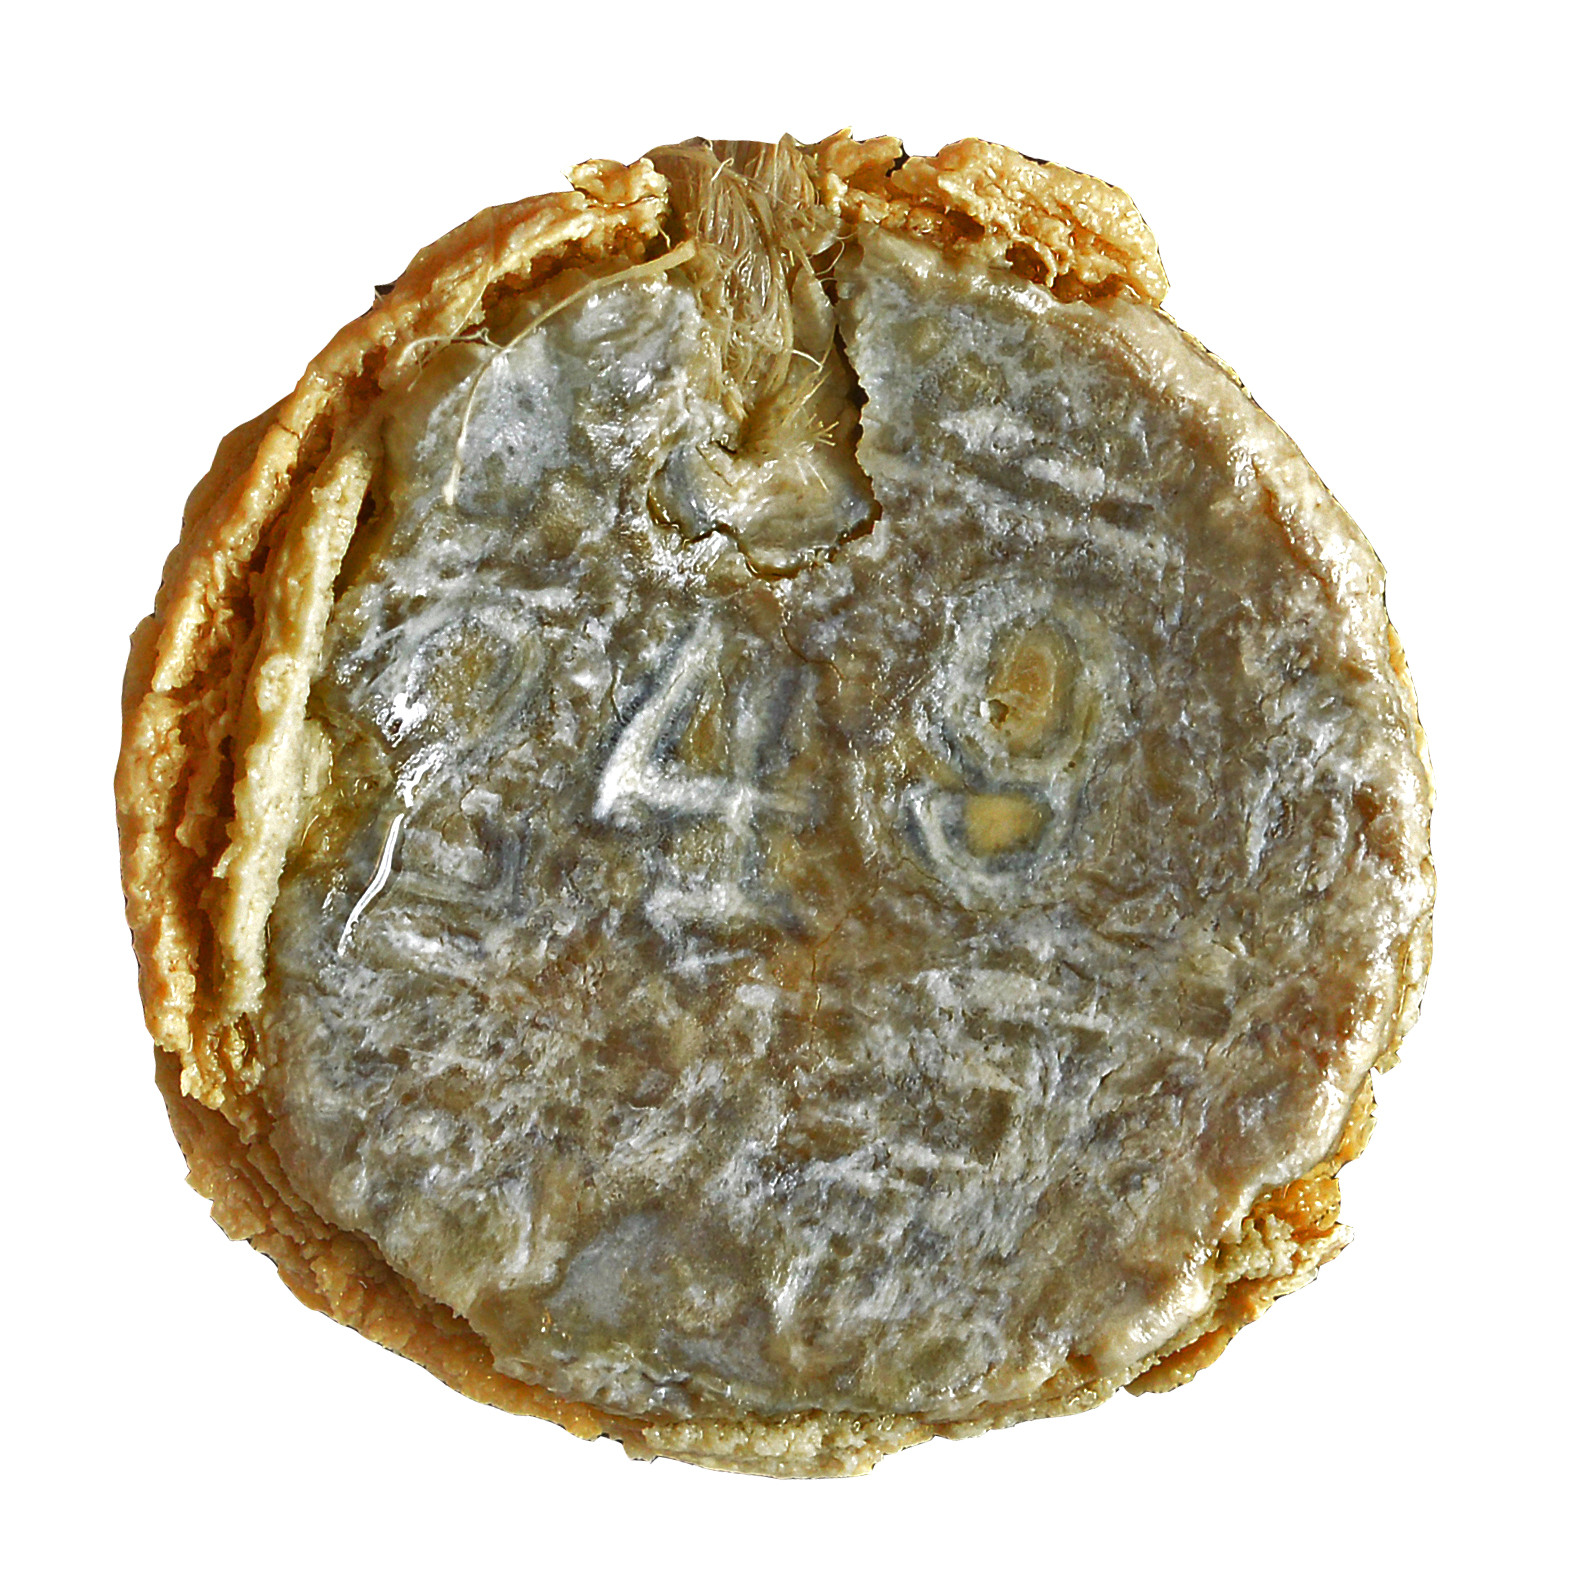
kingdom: Animalia
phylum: Chordata
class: Aves
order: Passeriformes
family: Thraupidae
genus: Nesospiza
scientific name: Nesospiza acunhae
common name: Inaccessible island finch
